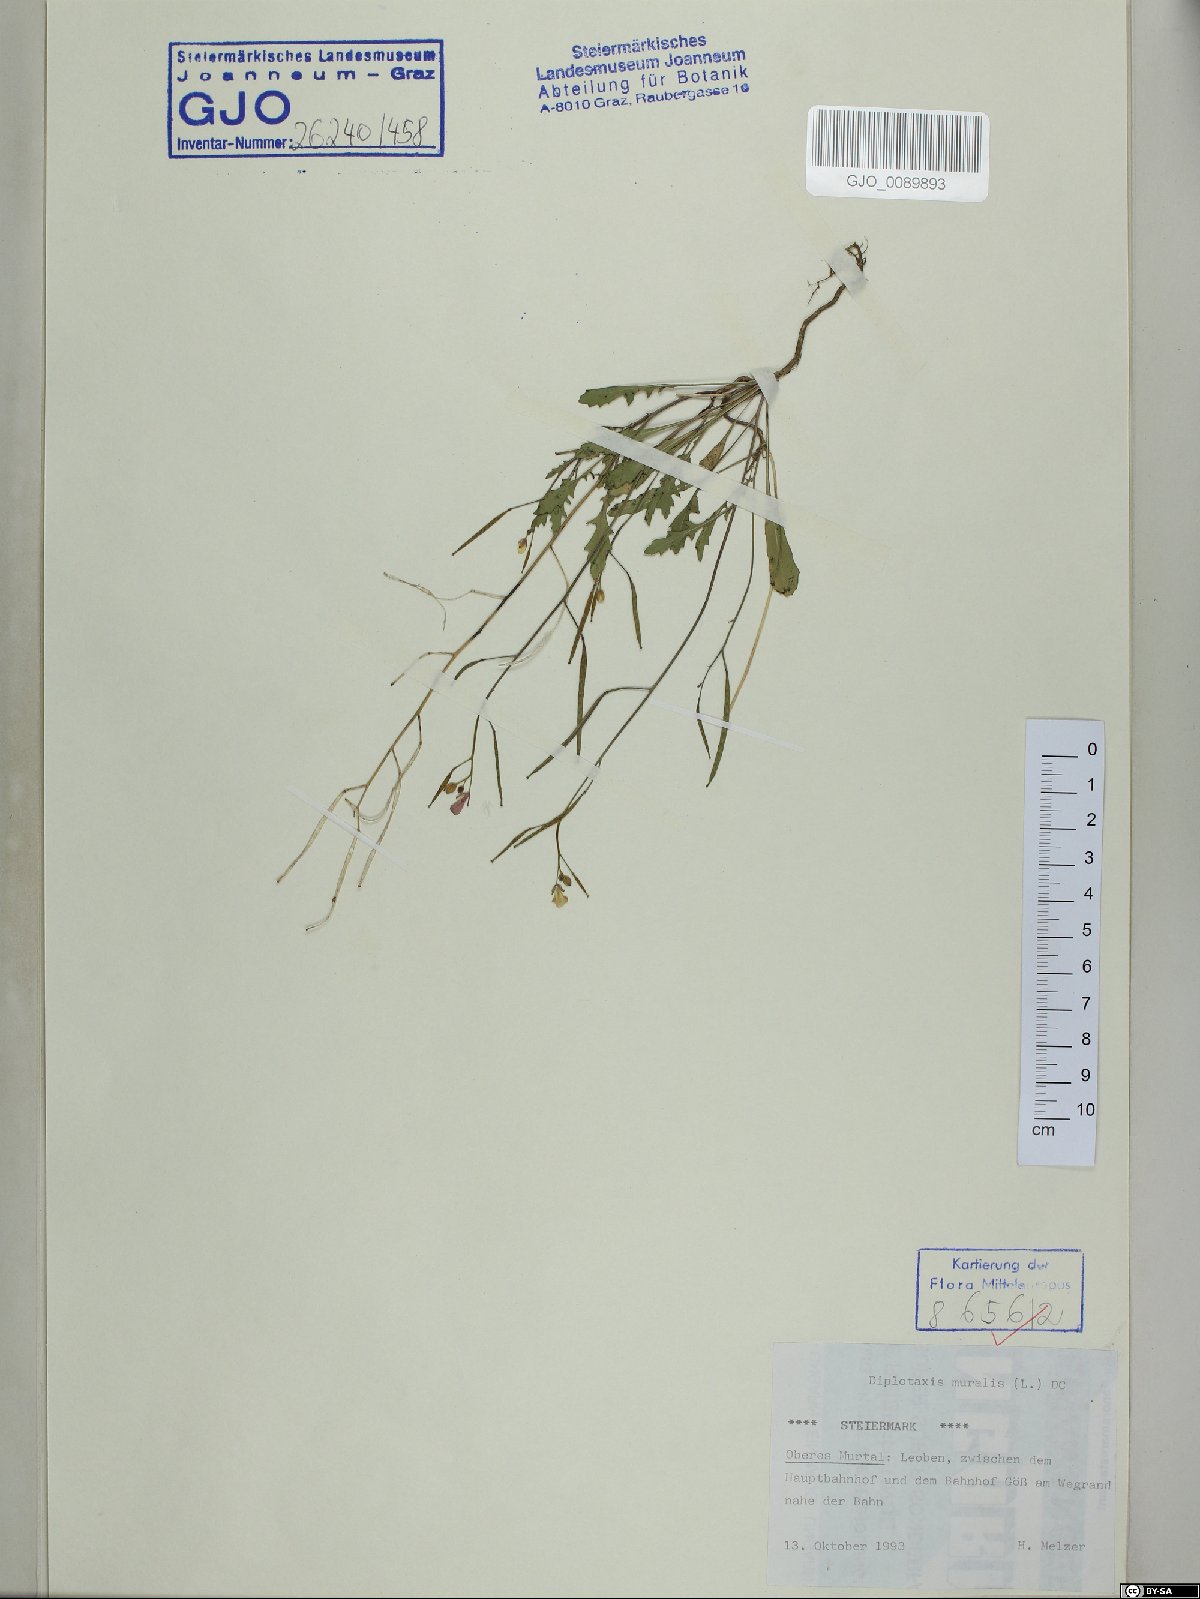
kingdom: Plantae
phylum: Tracheophyta
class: Magnoliopsida
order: Brassicales
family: Brassicaceae
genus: Diplotaxis
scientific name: Diplotaxis muralis
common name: Annual wall-rocket
